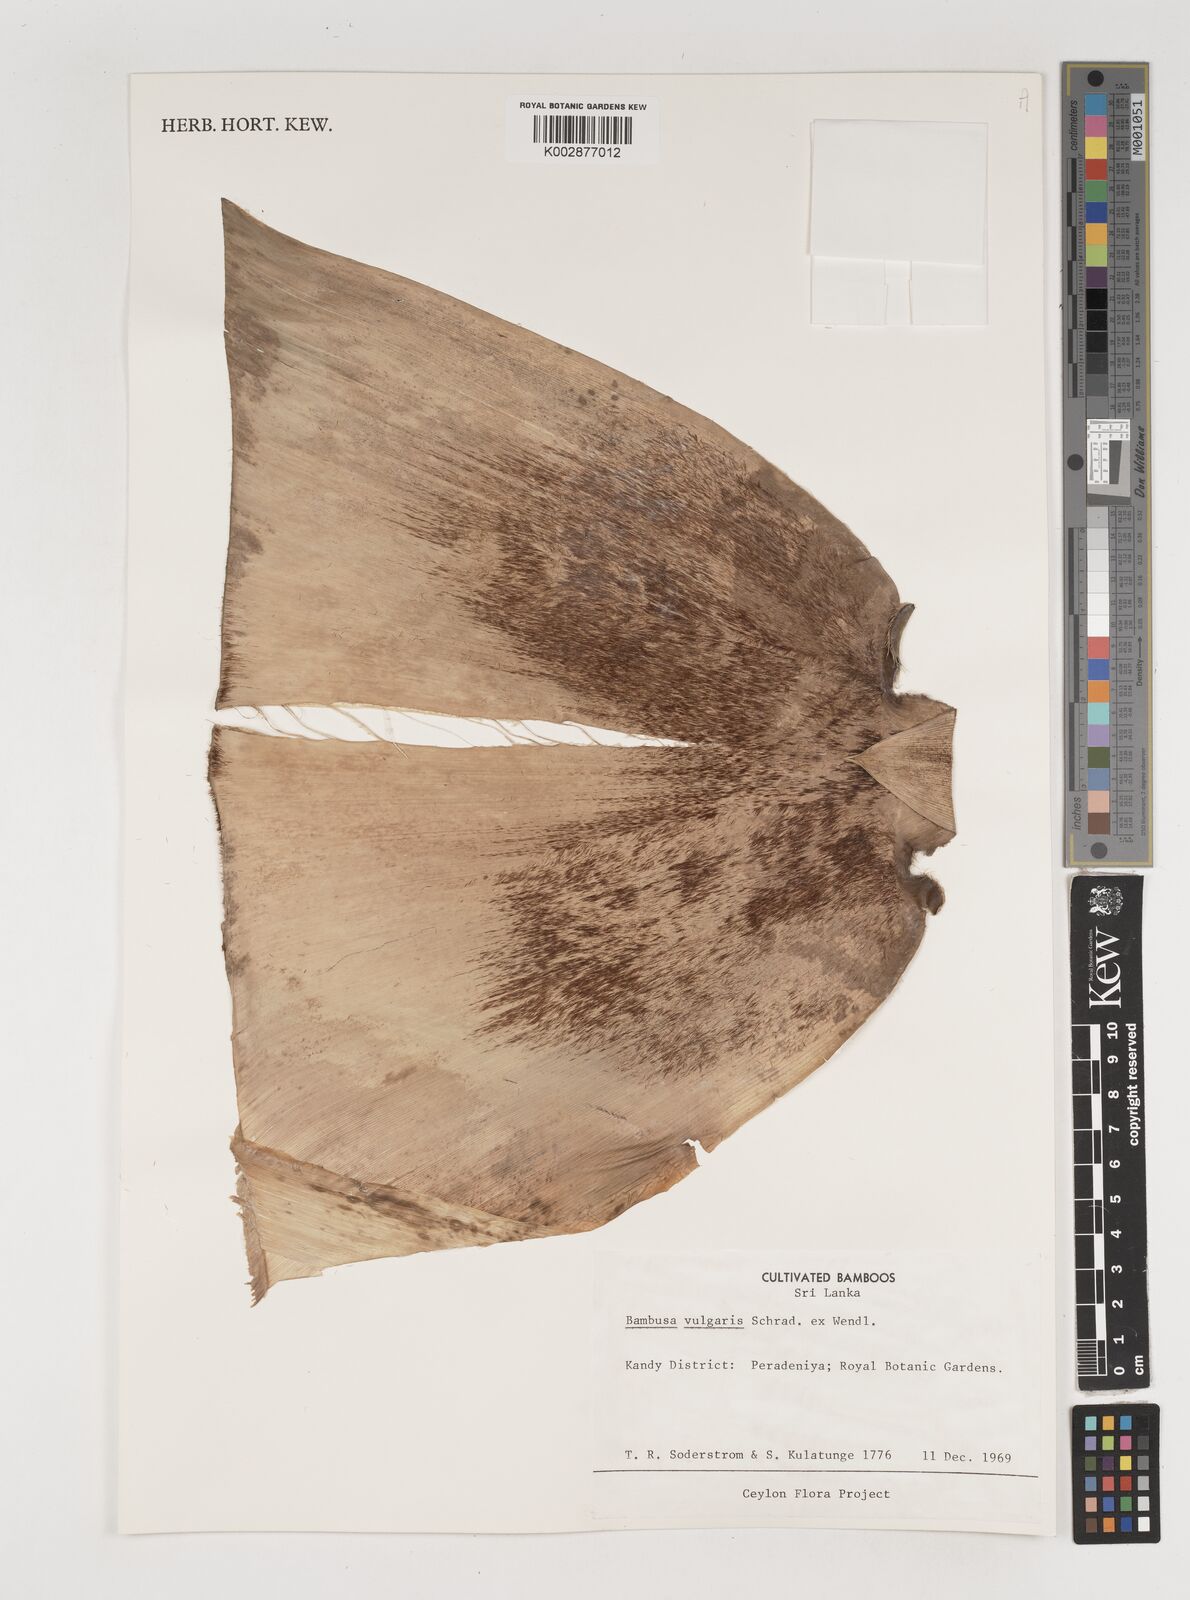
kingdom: Plantae
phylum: Tracheophyta
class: Liliopsida
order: Poales
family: Poaceae
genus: Bambusa
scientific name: Bambusa vulgaris
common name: Common bamboo
